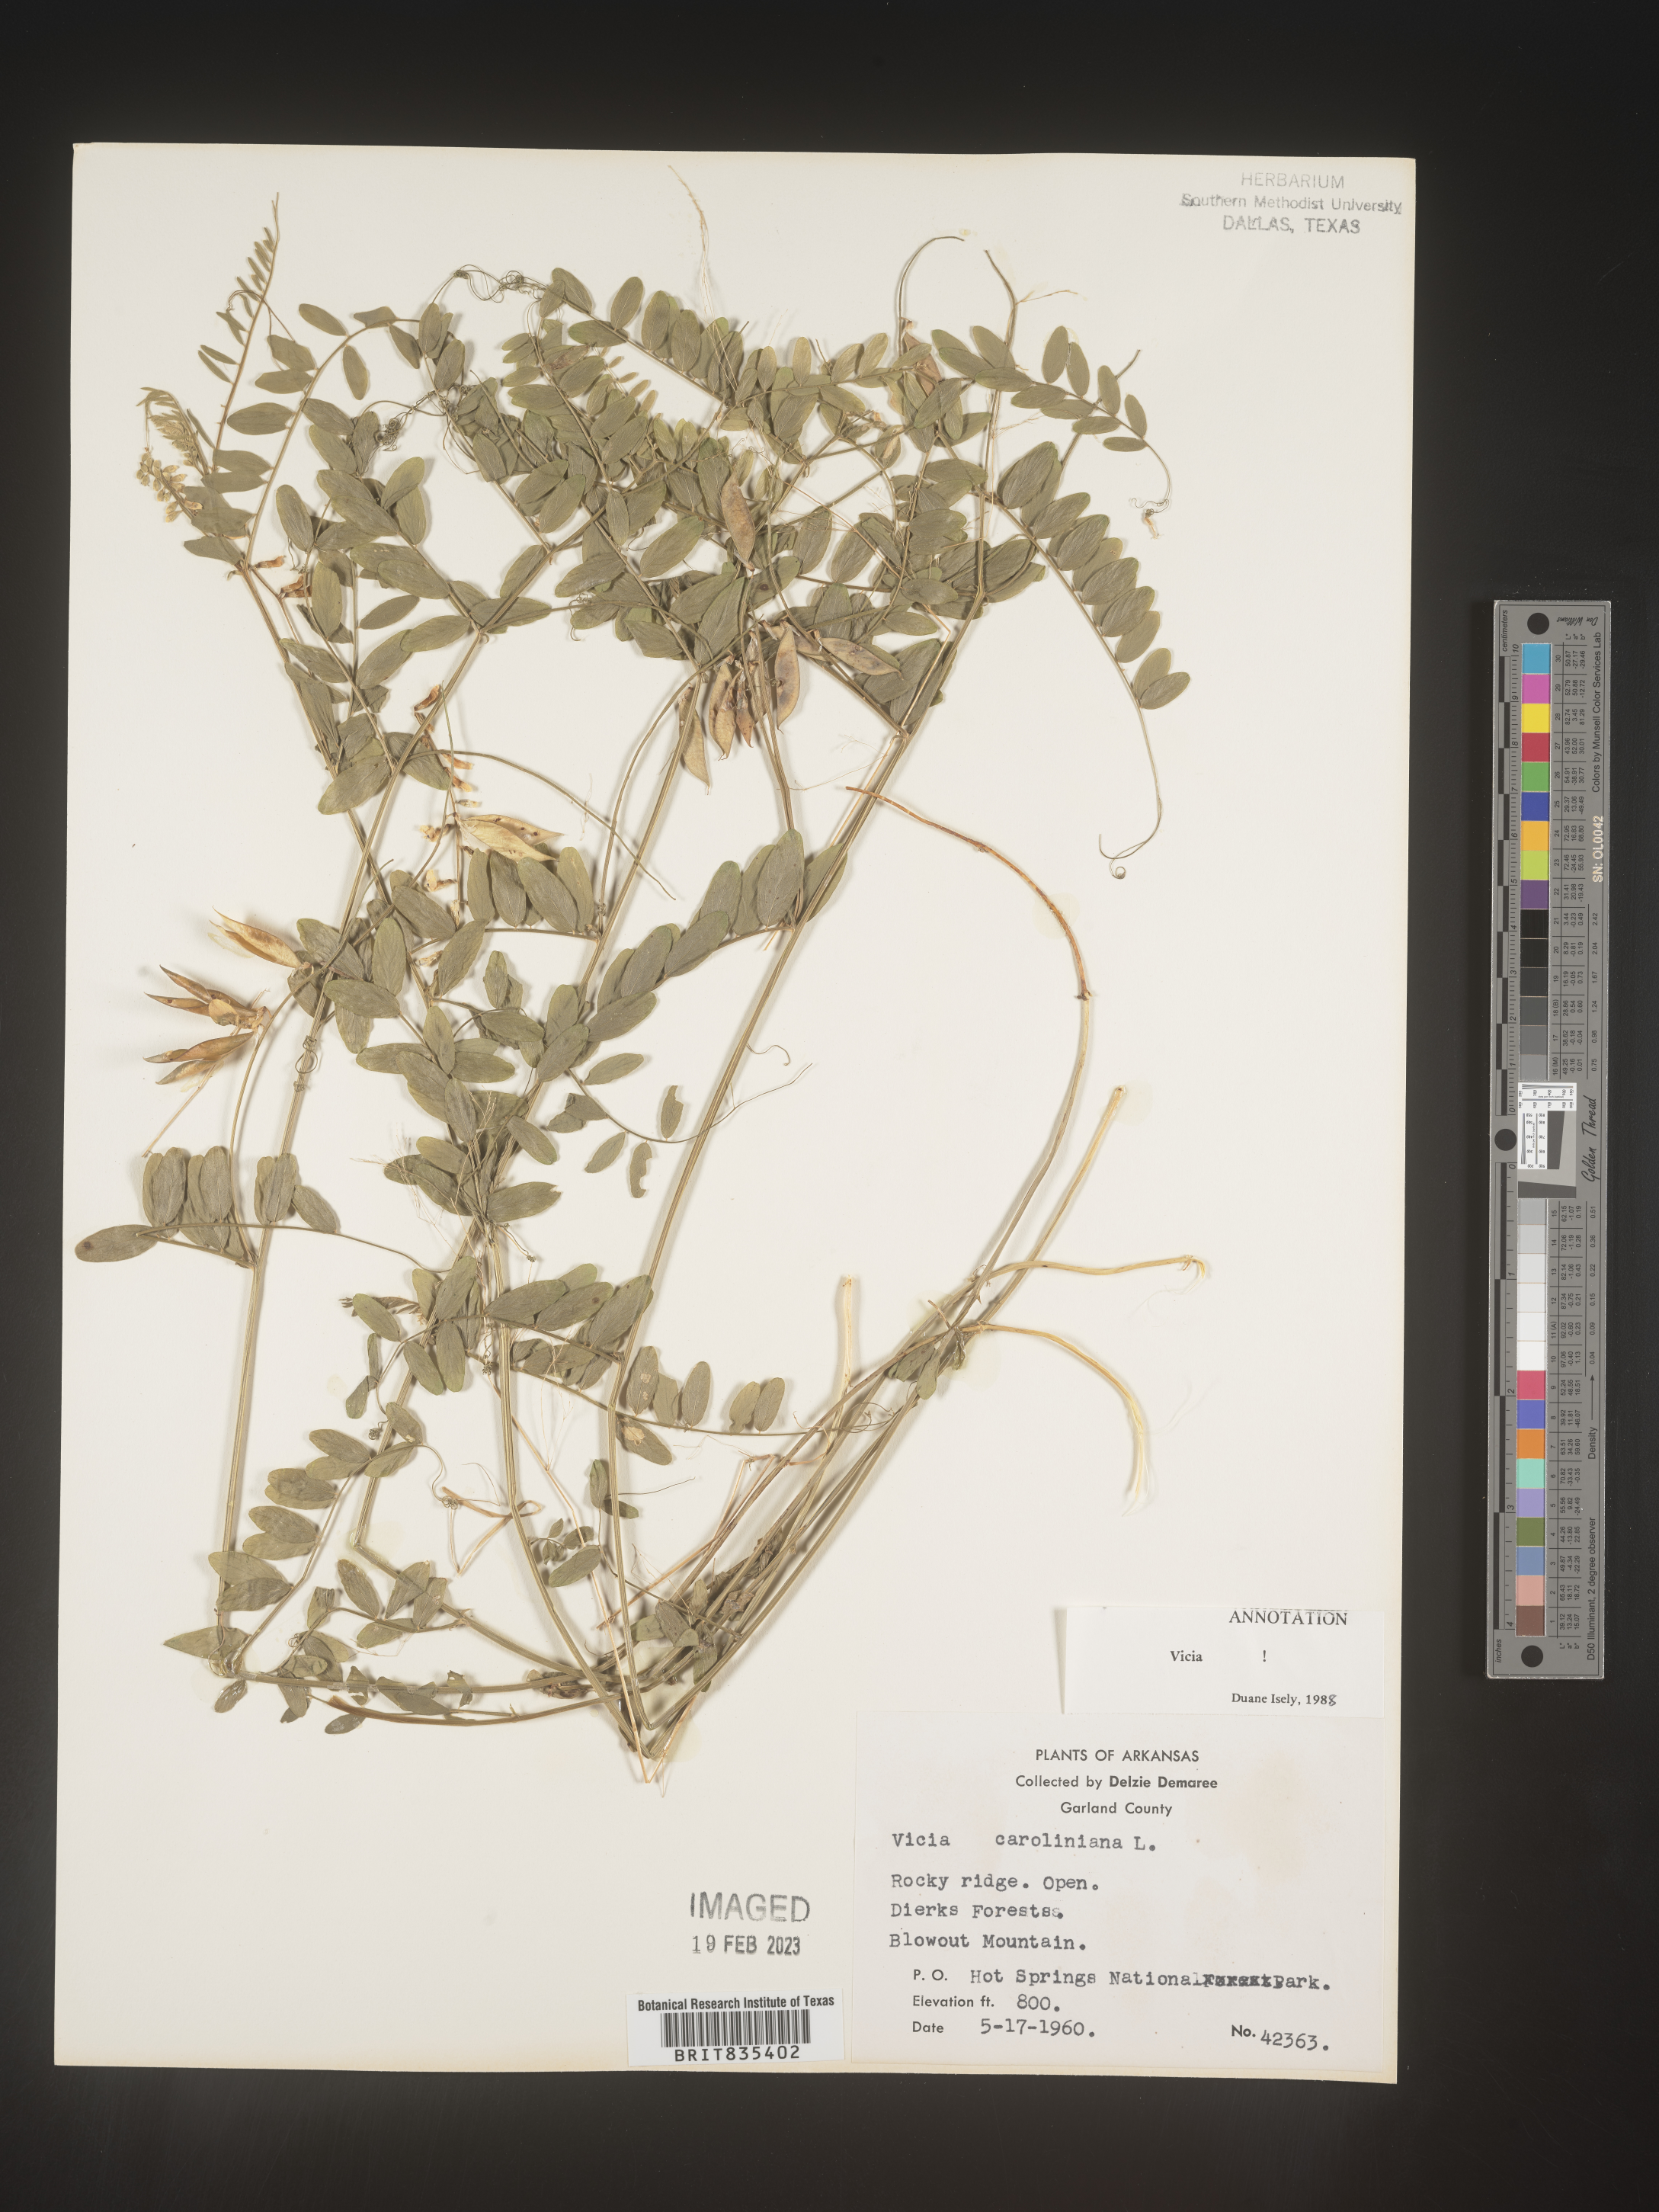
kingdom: Plantae
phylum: Tracheophyta
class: Magnoliopsida
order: Fabales
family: Fabaceae
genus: Vicia
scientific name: Vicia caroliniana
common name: Carolina vetch
